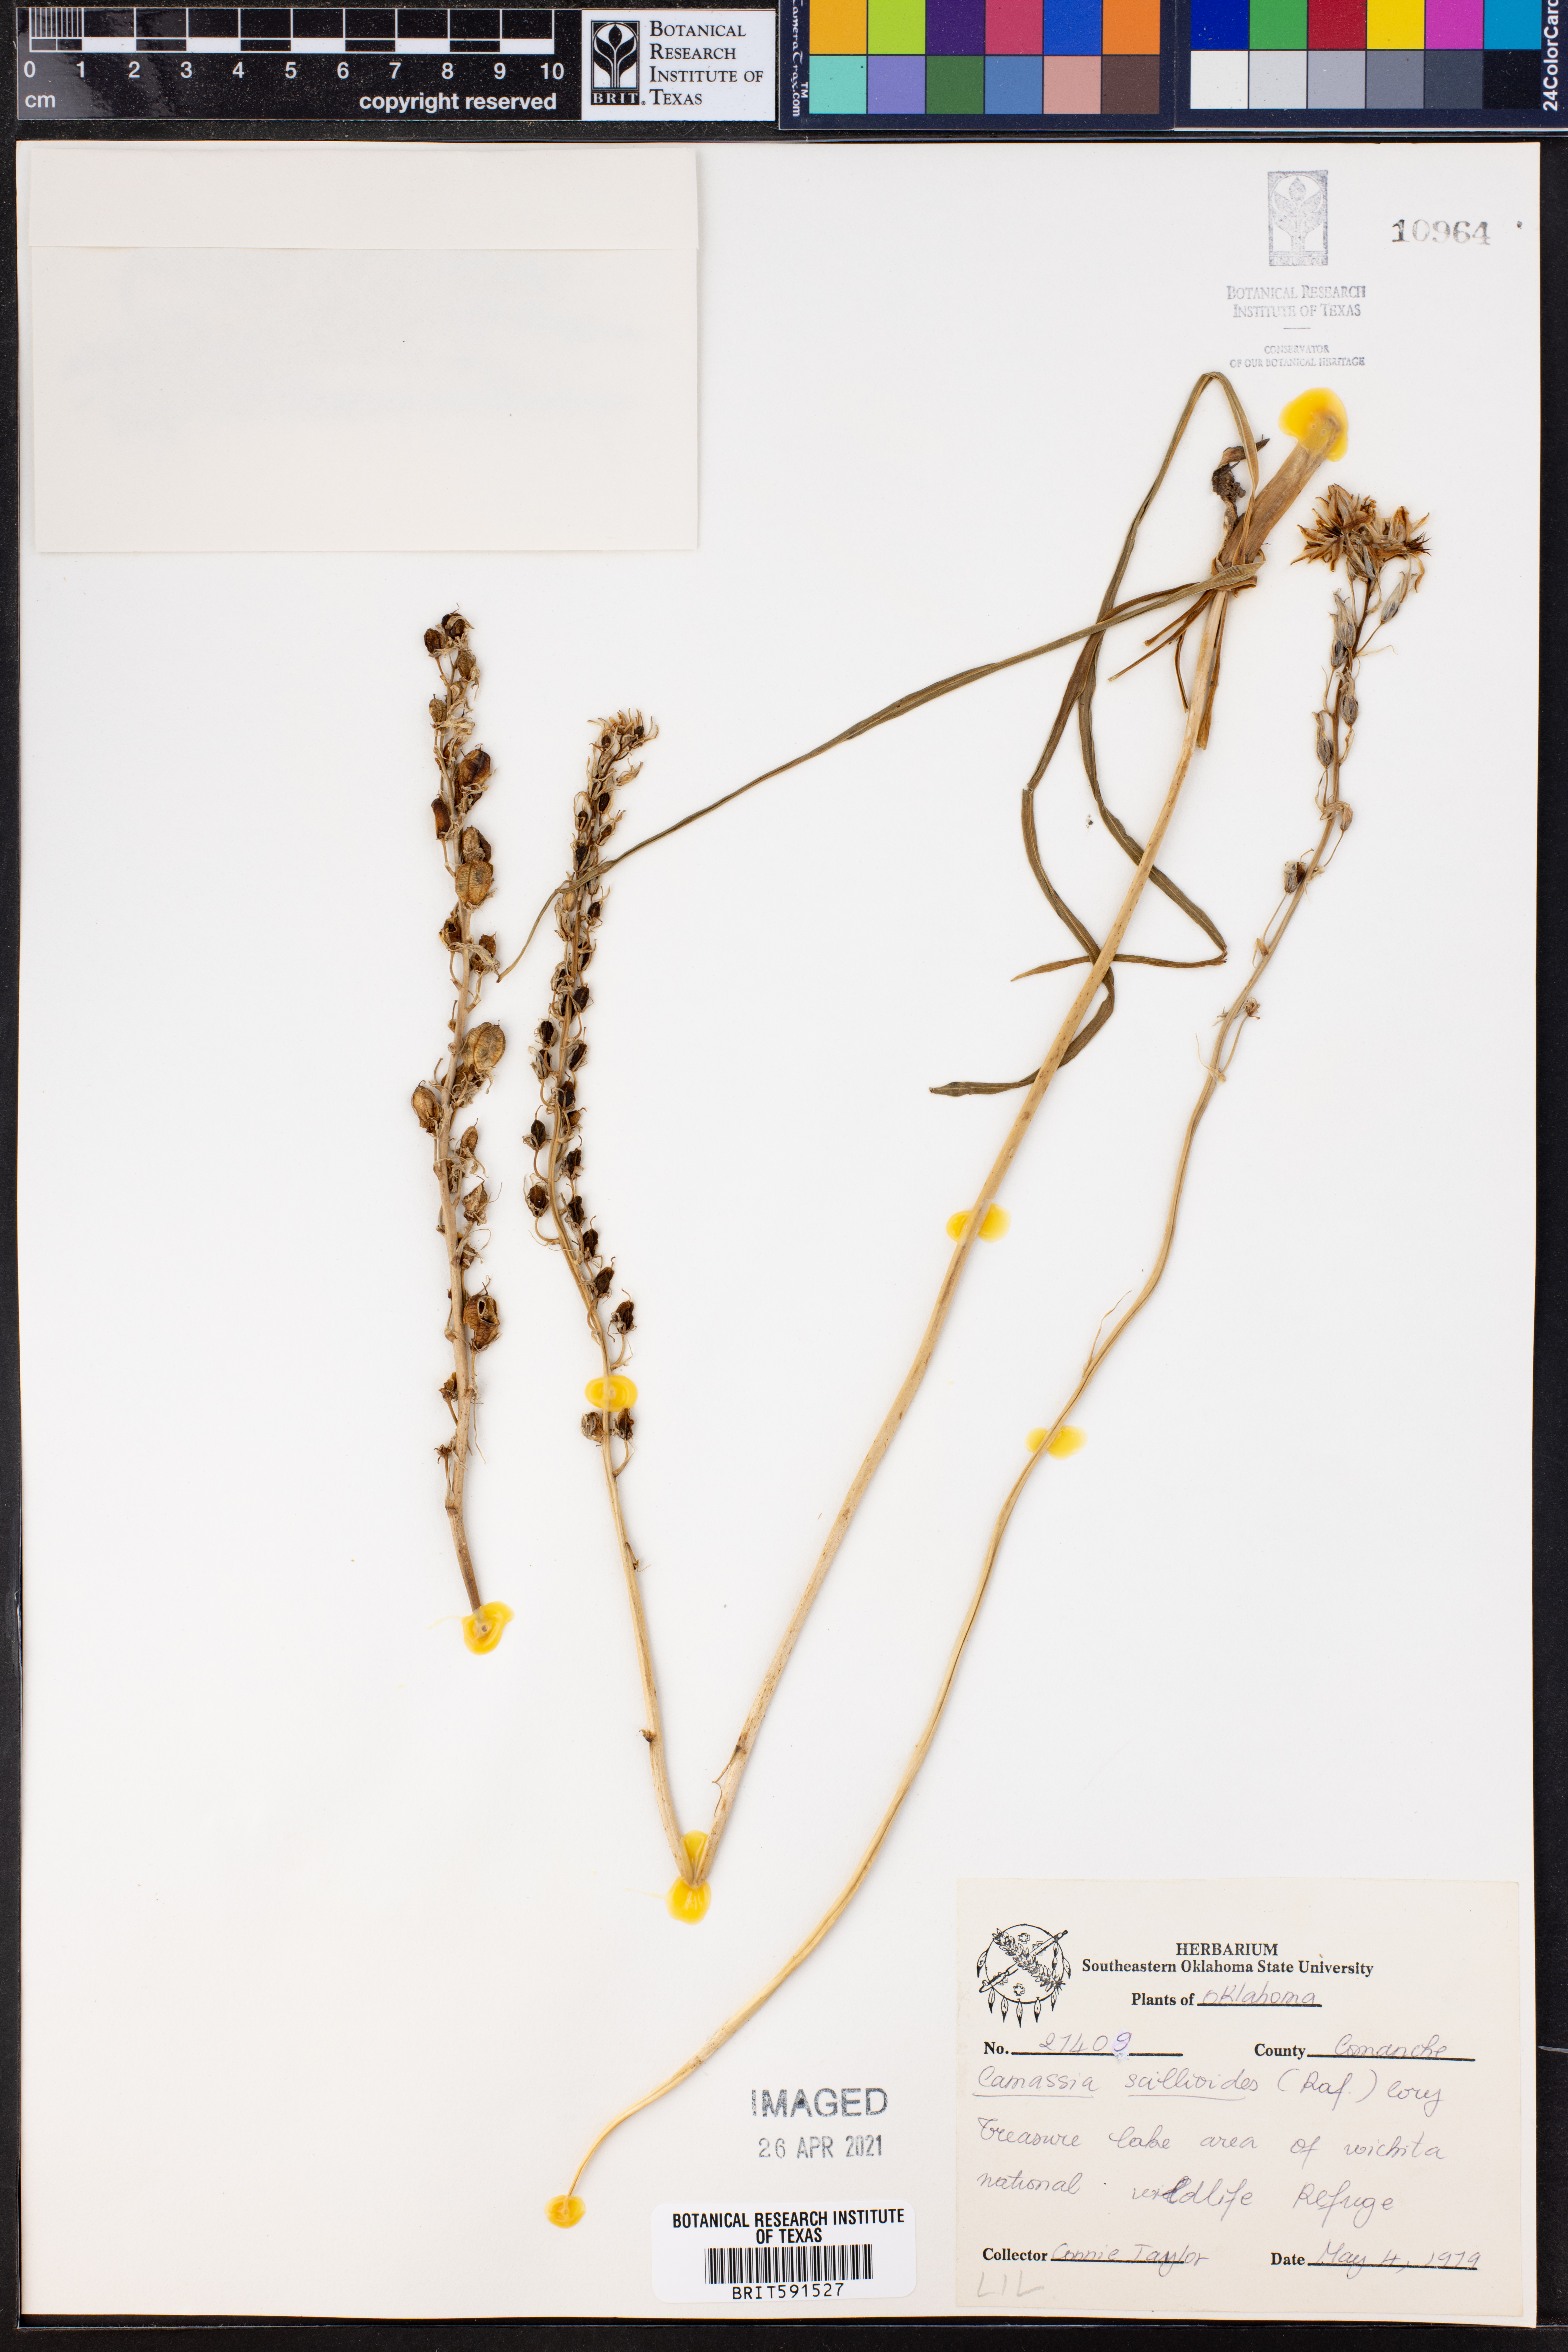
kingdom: Plantae
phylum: Tracheophyta
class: Liliopsida
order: Asparagales
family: Asparagaceae
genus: Camassia
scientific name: Camassia scilloides
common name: Wild hyacinth
